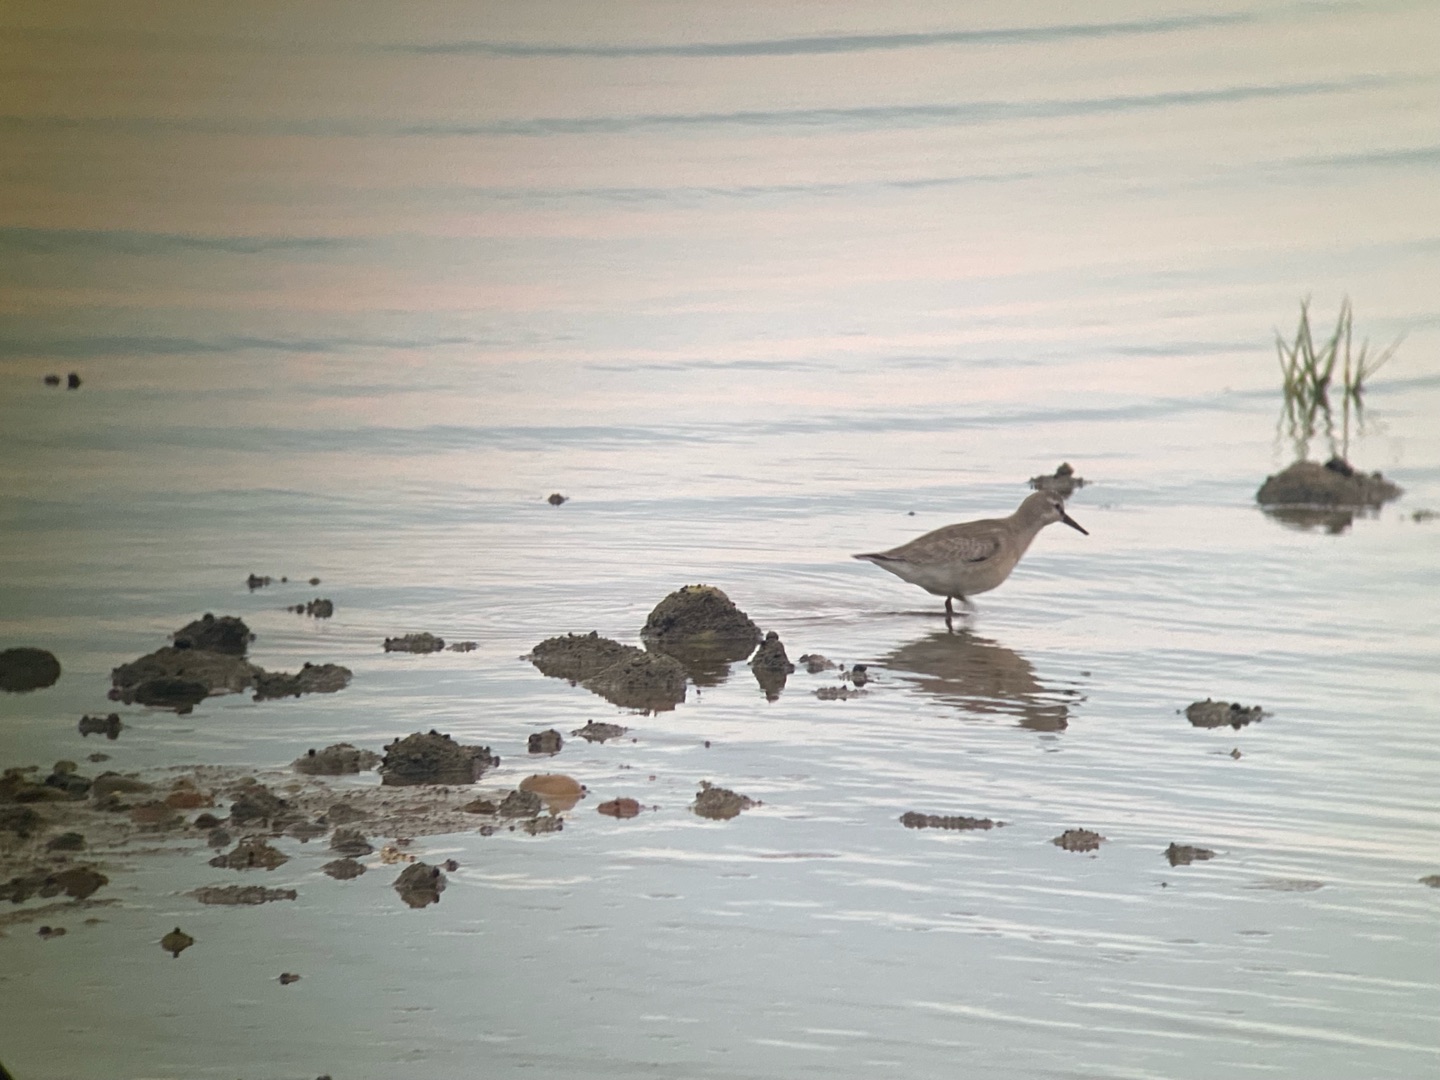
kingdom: Animalia
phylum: Chordata
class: Aves
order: Charadriiformes
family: Scolopacidae
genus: Calidris
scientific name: Calidris canutus
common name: Islandsk ryle
